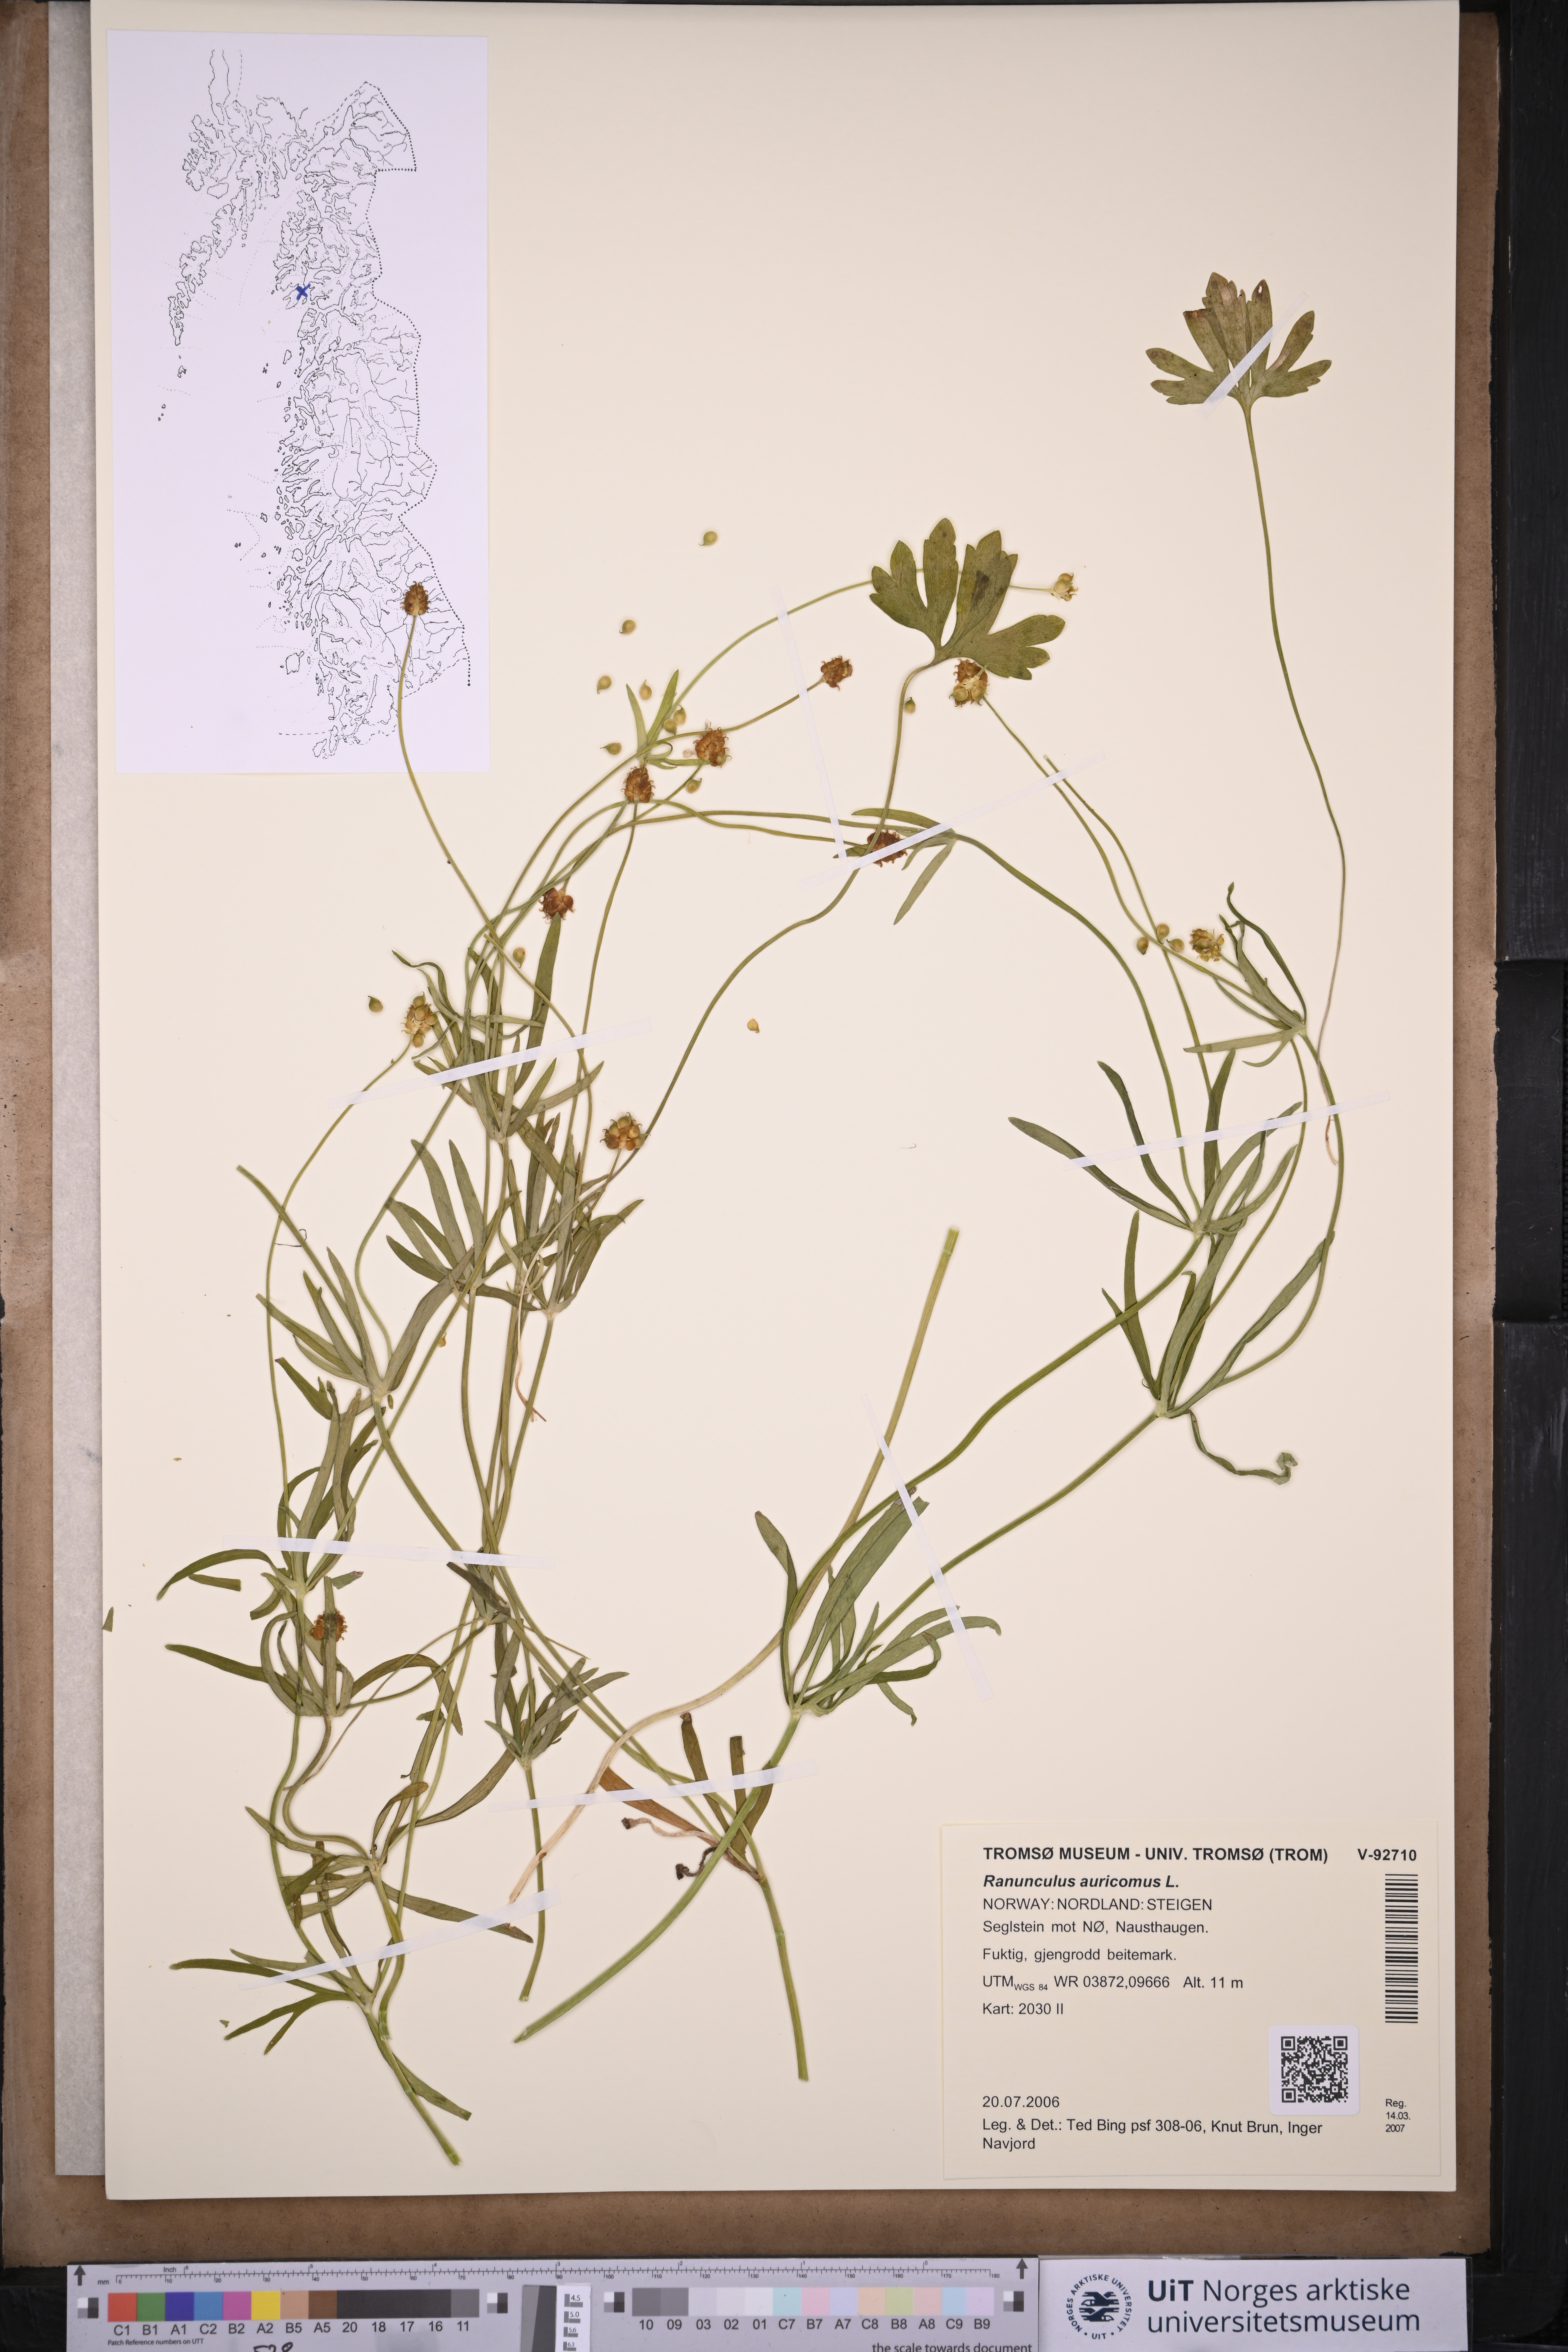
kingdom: Plantae
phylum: Tracheophyta
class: Magnoliopsida
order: Ranunculales
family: Ranunculaceae
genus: Ranunculus
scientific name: Ranunculus auricomus
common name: Goldilocks buttercup
